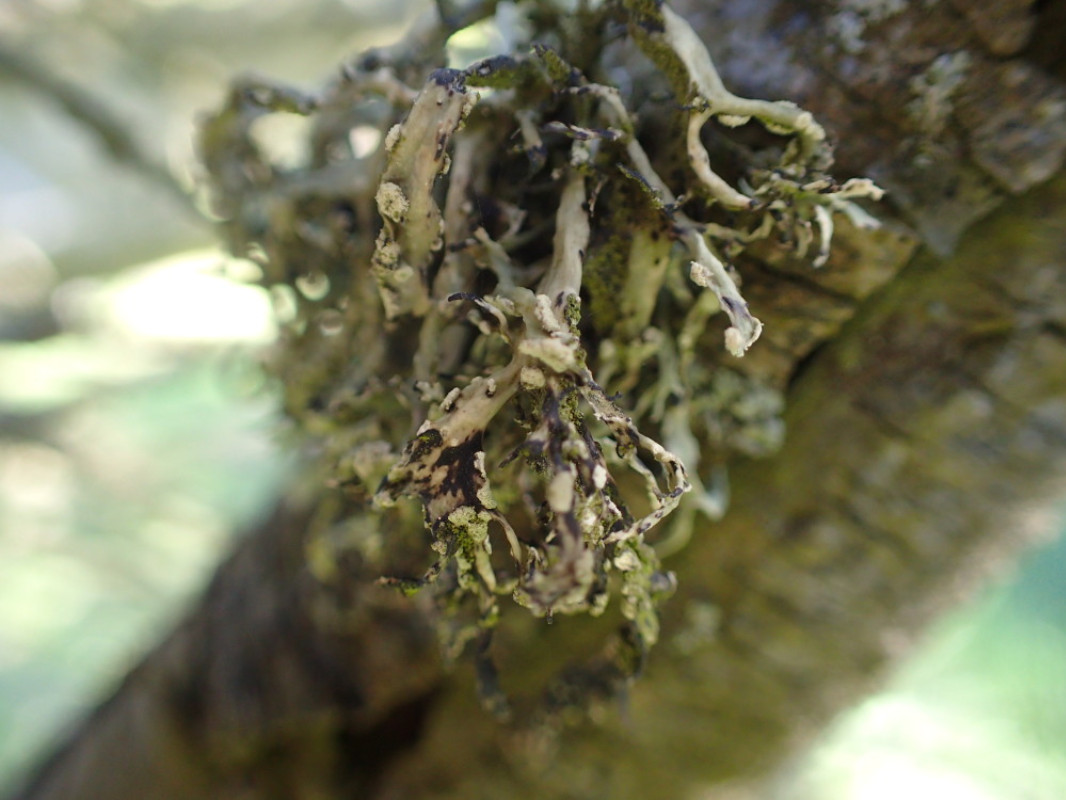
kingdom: Fungi
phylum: Ascomycota
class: Lecanoromycetes
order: Lecanorales
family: Ramalinaceae
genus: Ramalina
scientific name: Ramalina farinacea
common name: melet grenlav
